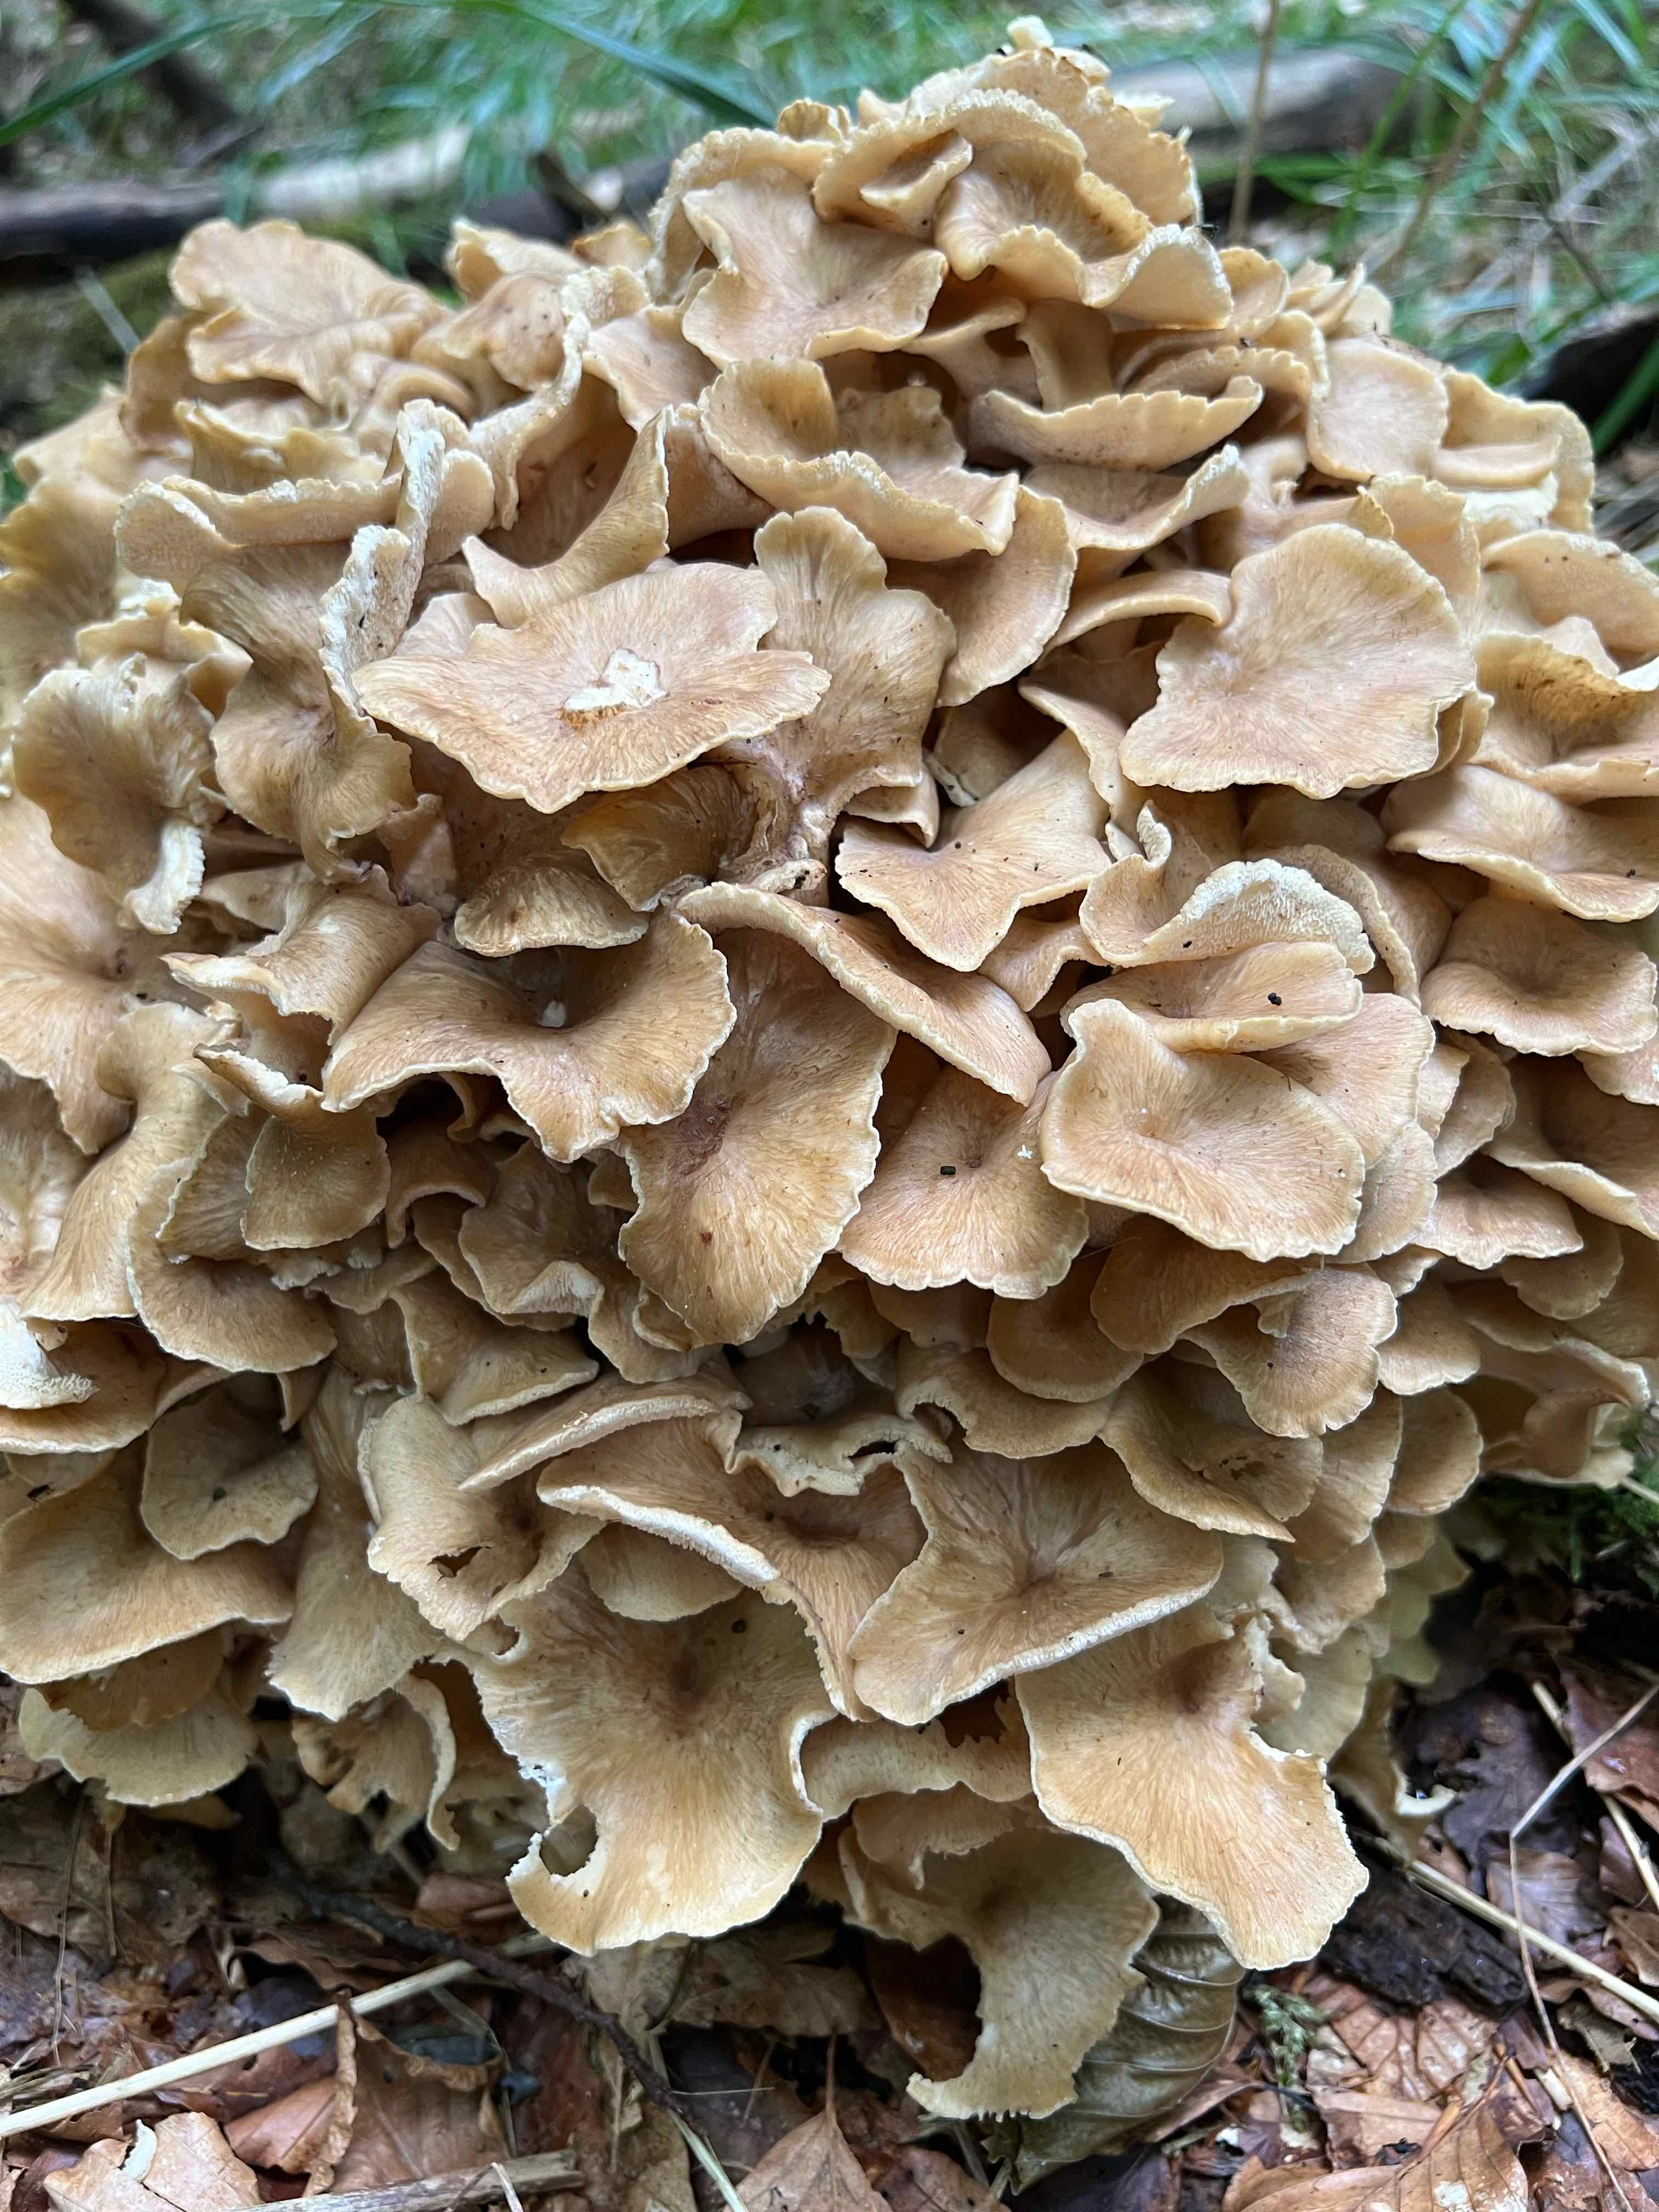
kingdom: Fungi
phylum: Basidiomycota
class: Agaricomycetes
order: Polyporales
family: Polyporaceae
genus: Polyporus
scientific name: Polyporus umbellatus
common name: skærmformet stilkporesvamp
